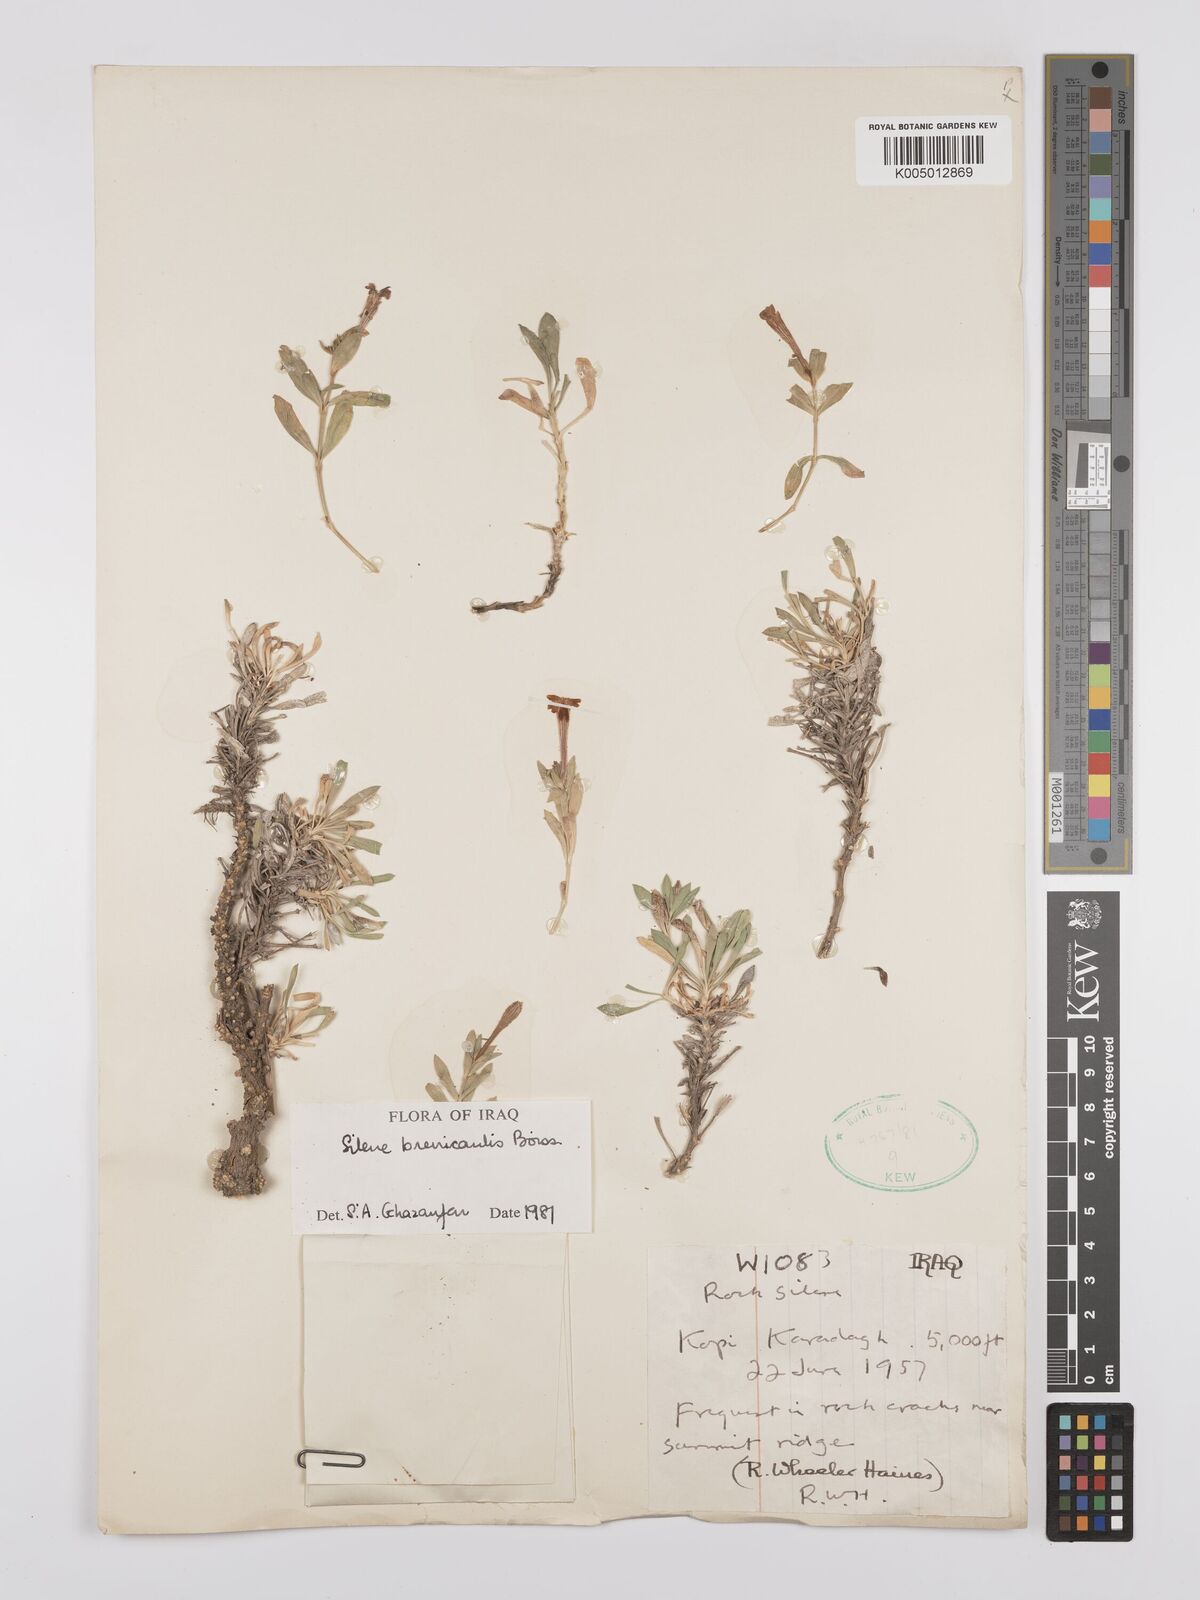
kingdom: Plantae
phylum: Tracheophyta
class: Magnoliopsida
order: Caryophyllales
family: Caryophyllaceae
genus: Silene
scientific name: Silene brevicaulis
